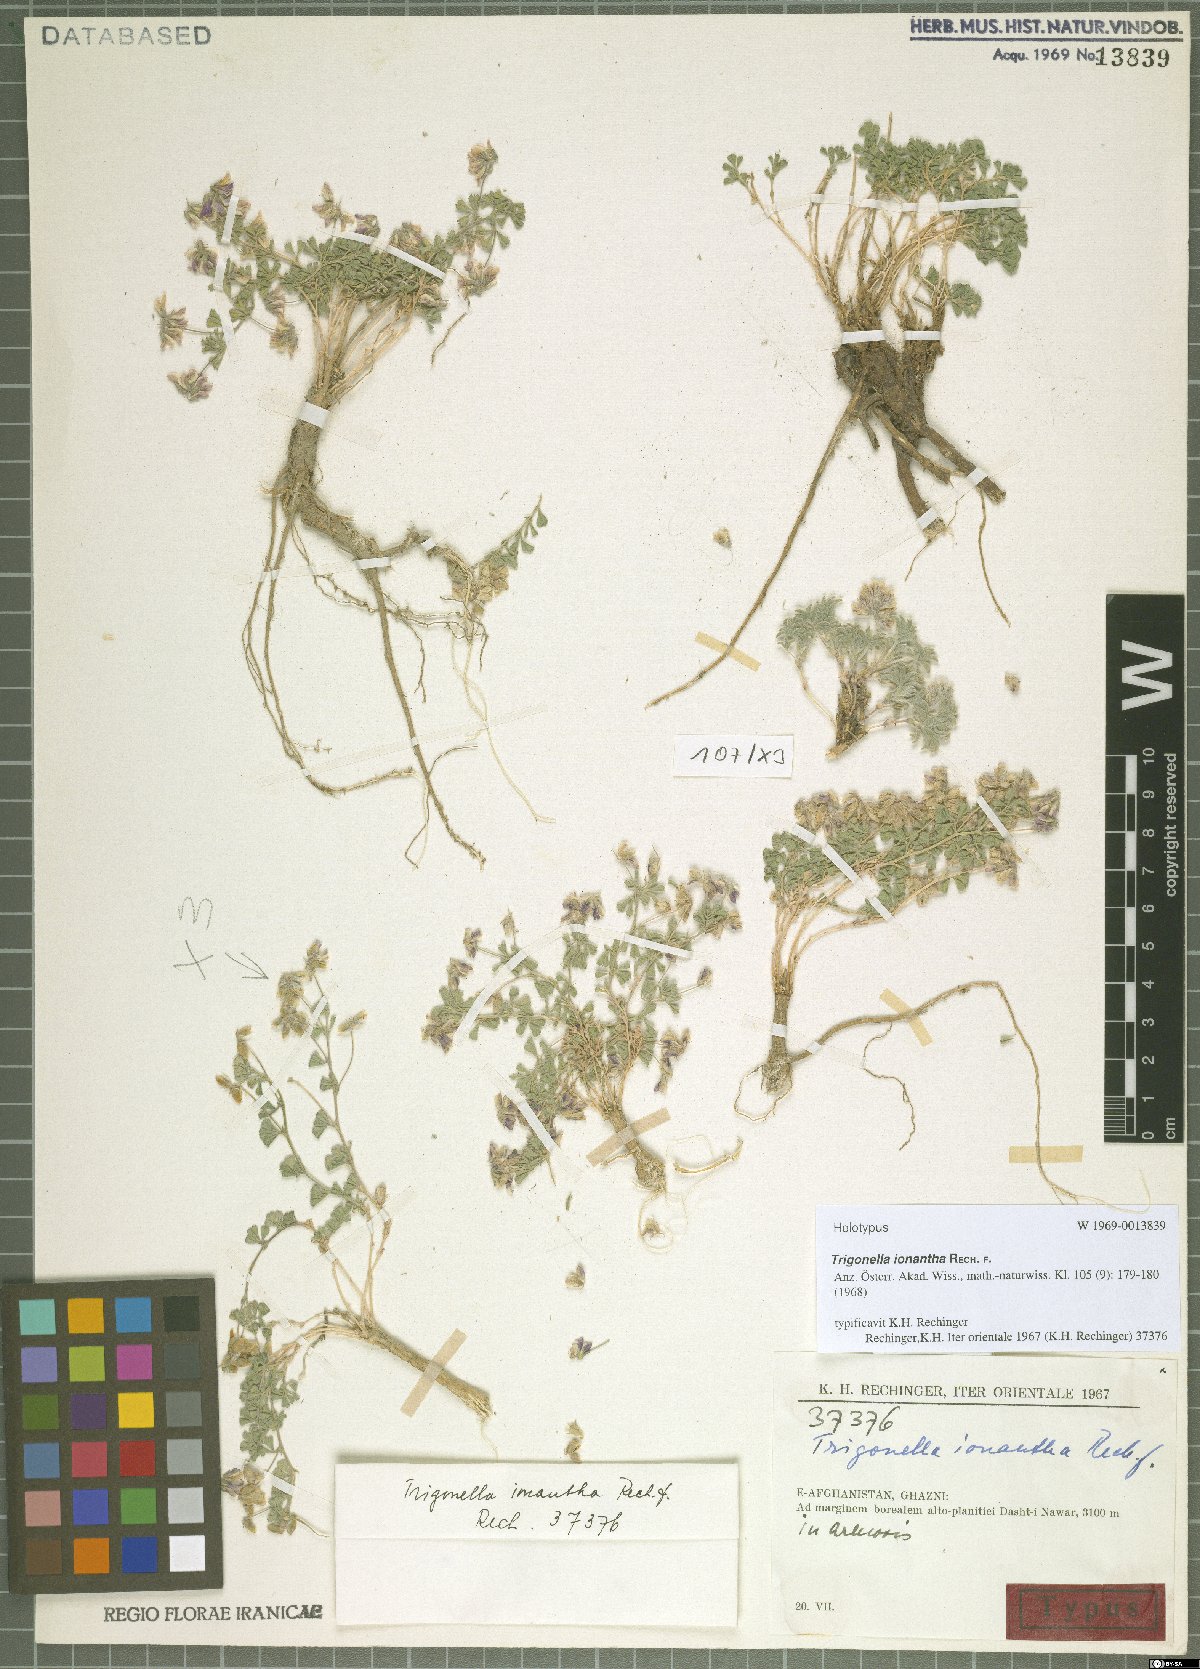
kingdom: Plantae
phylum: Tracheophyta
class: Magnoliopsida
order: Fabales
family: Fabaceae
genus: Trigonella
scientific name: Trigonella ionantha
